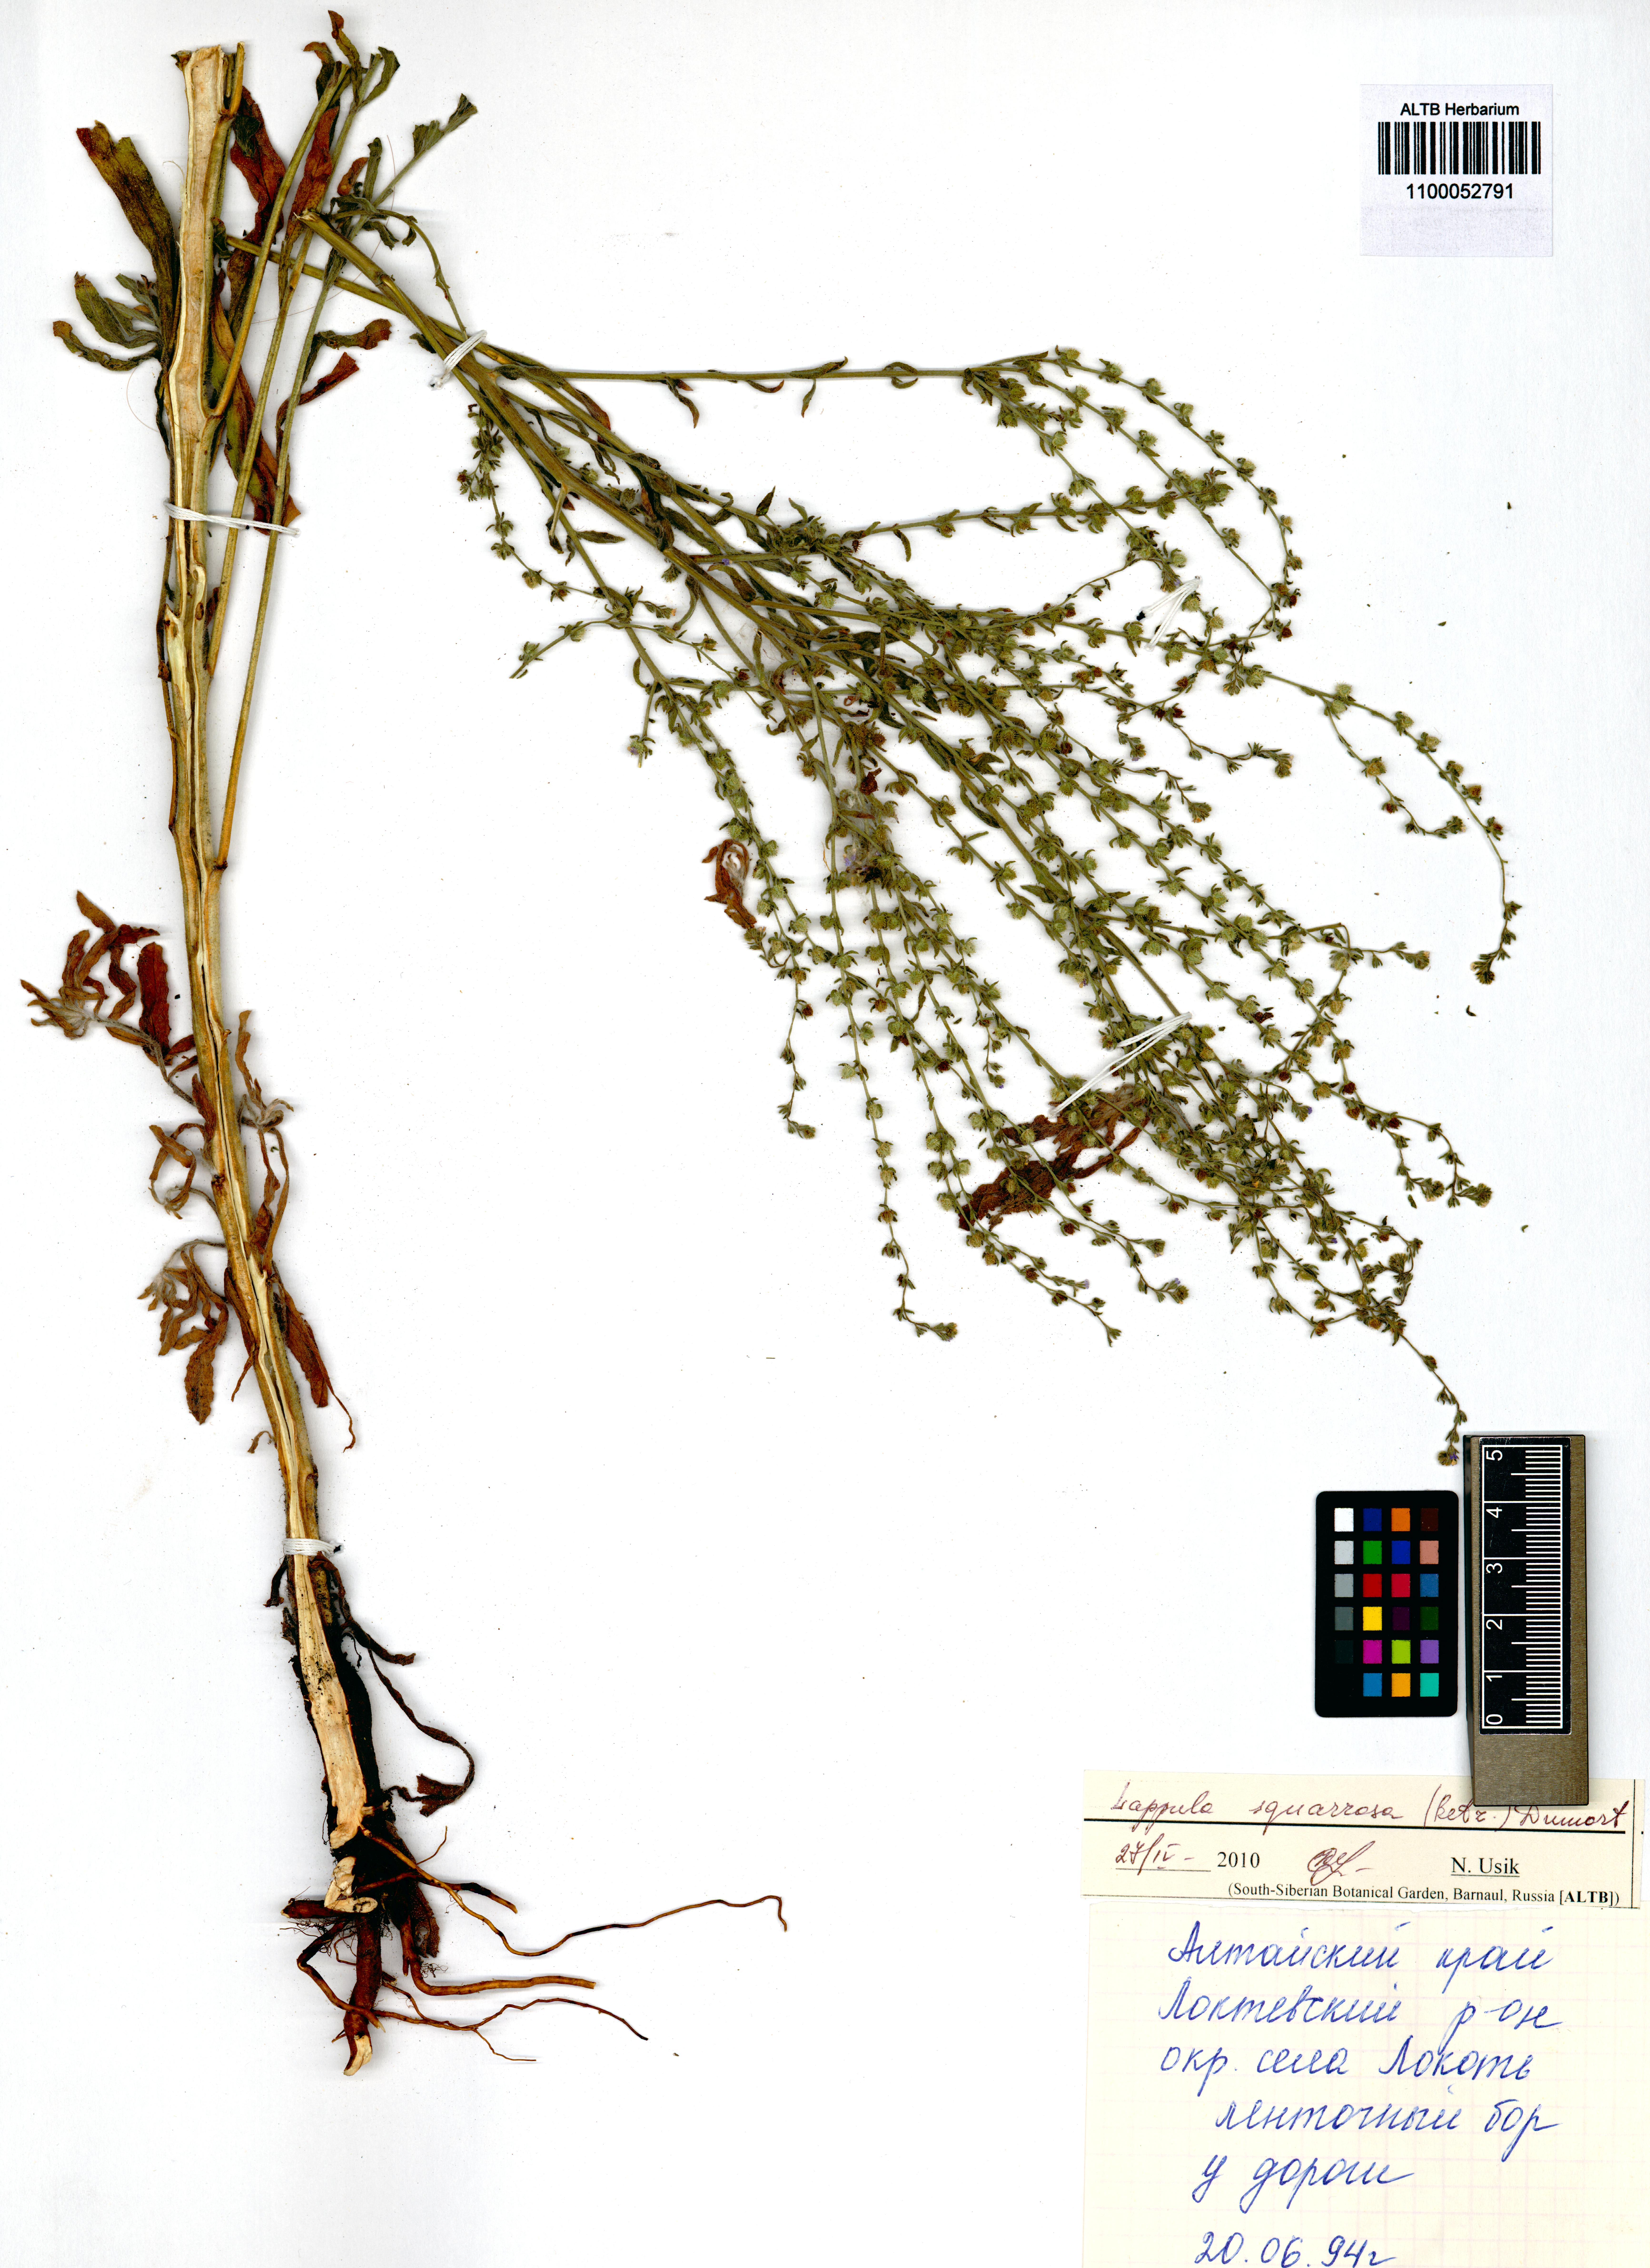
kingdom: Plantae
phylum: Tracheophyta
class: Magnoliopsida
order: Boraginales
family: Boraginaceae
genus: Lappula
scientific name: Lappula squarrosa
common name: European stickseed
